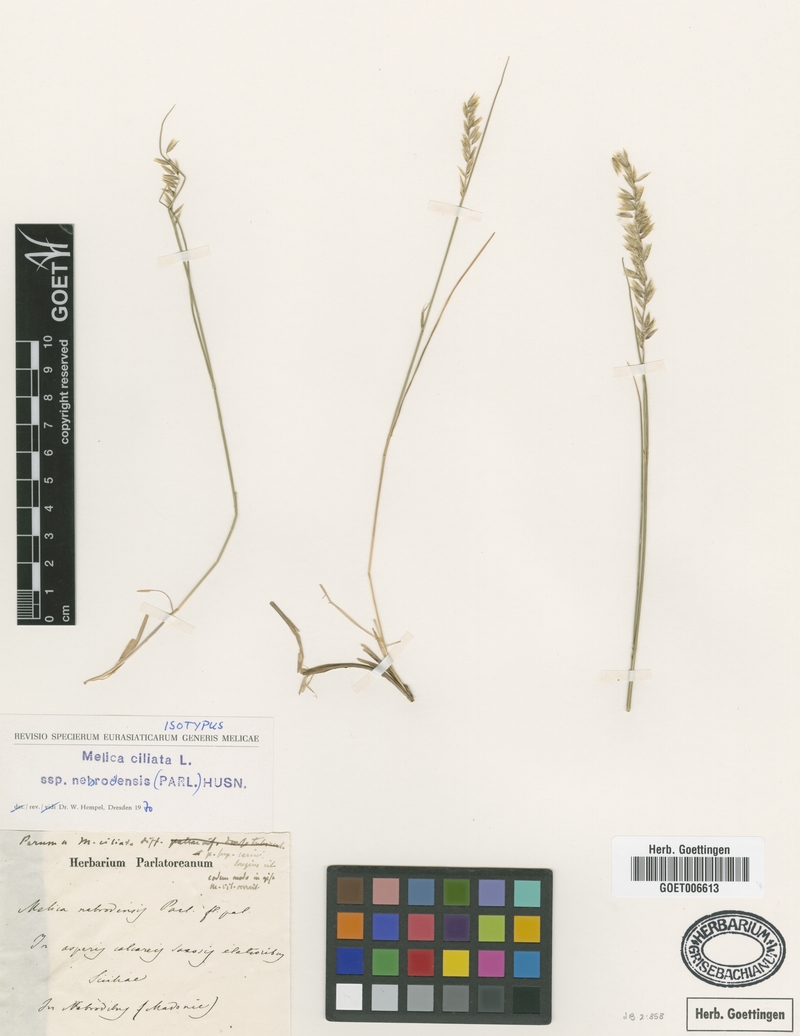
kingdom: Plantae
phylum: Tracheophyta
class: Liliopsida
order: Poales
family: Poaceae
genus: Melica
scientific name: Melica ciliata
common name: Hairy melicgrass
